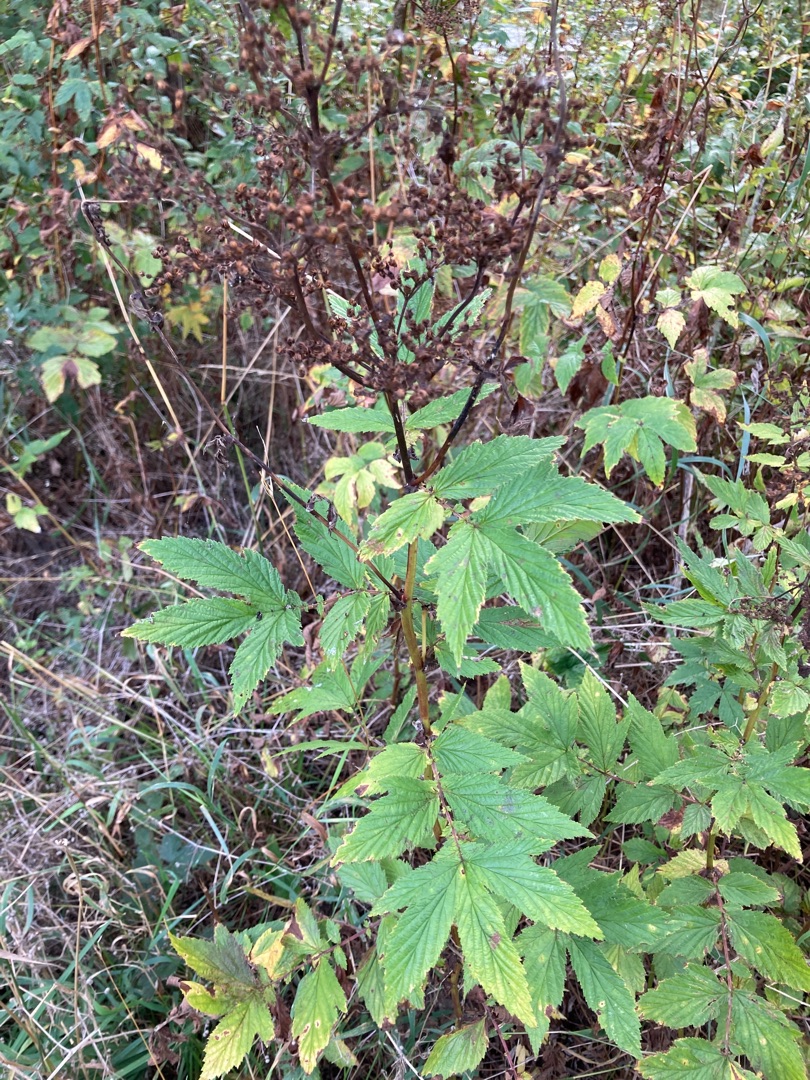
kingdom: Plantae
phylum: Tracheophyta
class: Magnoliopsida
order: Rosales
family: Rosaceae
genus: Filipendula
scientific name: Filipendula ulmaria
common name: Almindelig mjødurt
